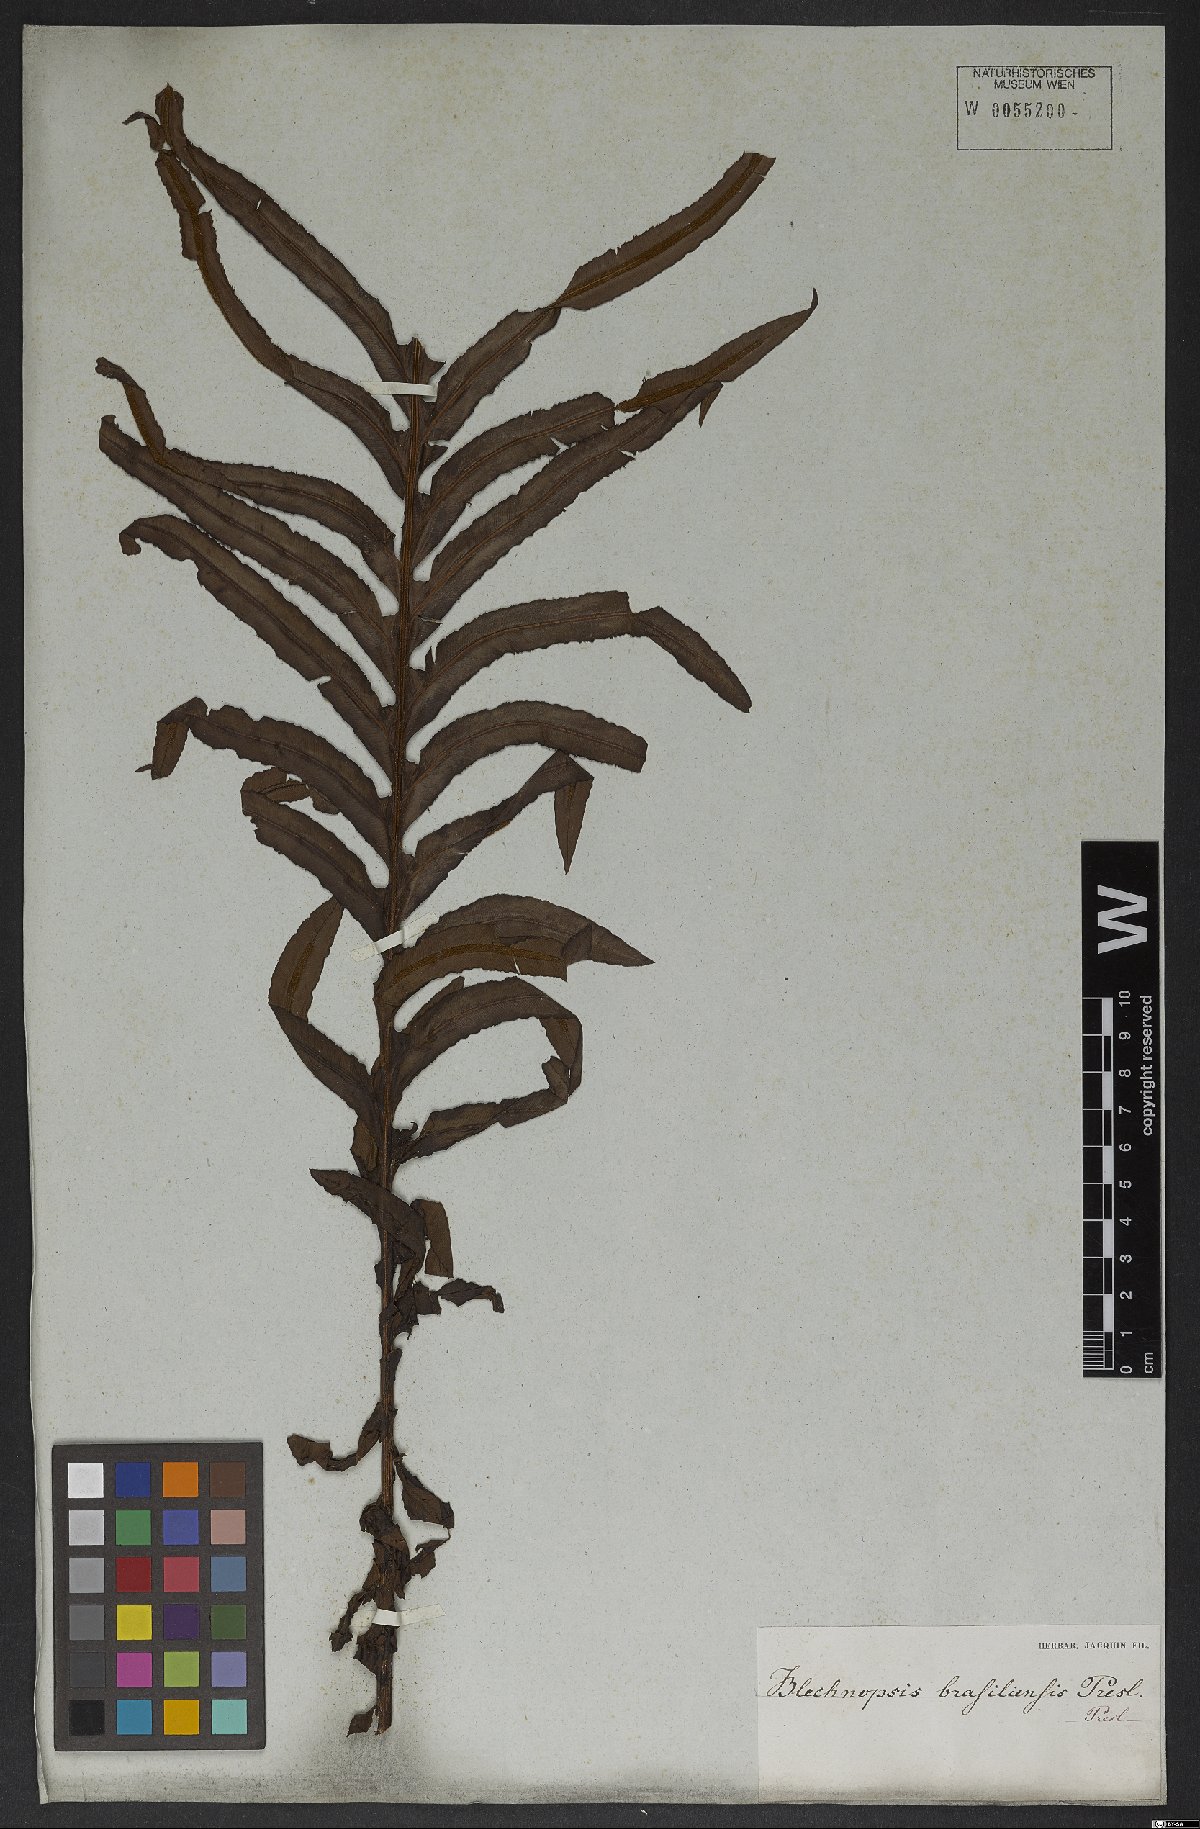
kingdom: Plantae
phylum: Tracheophyta
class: Polypodiopsida
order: Polypodiales
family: Blechnaceae
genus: Neoblechnum
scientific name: Neoblechnum brasiliense
